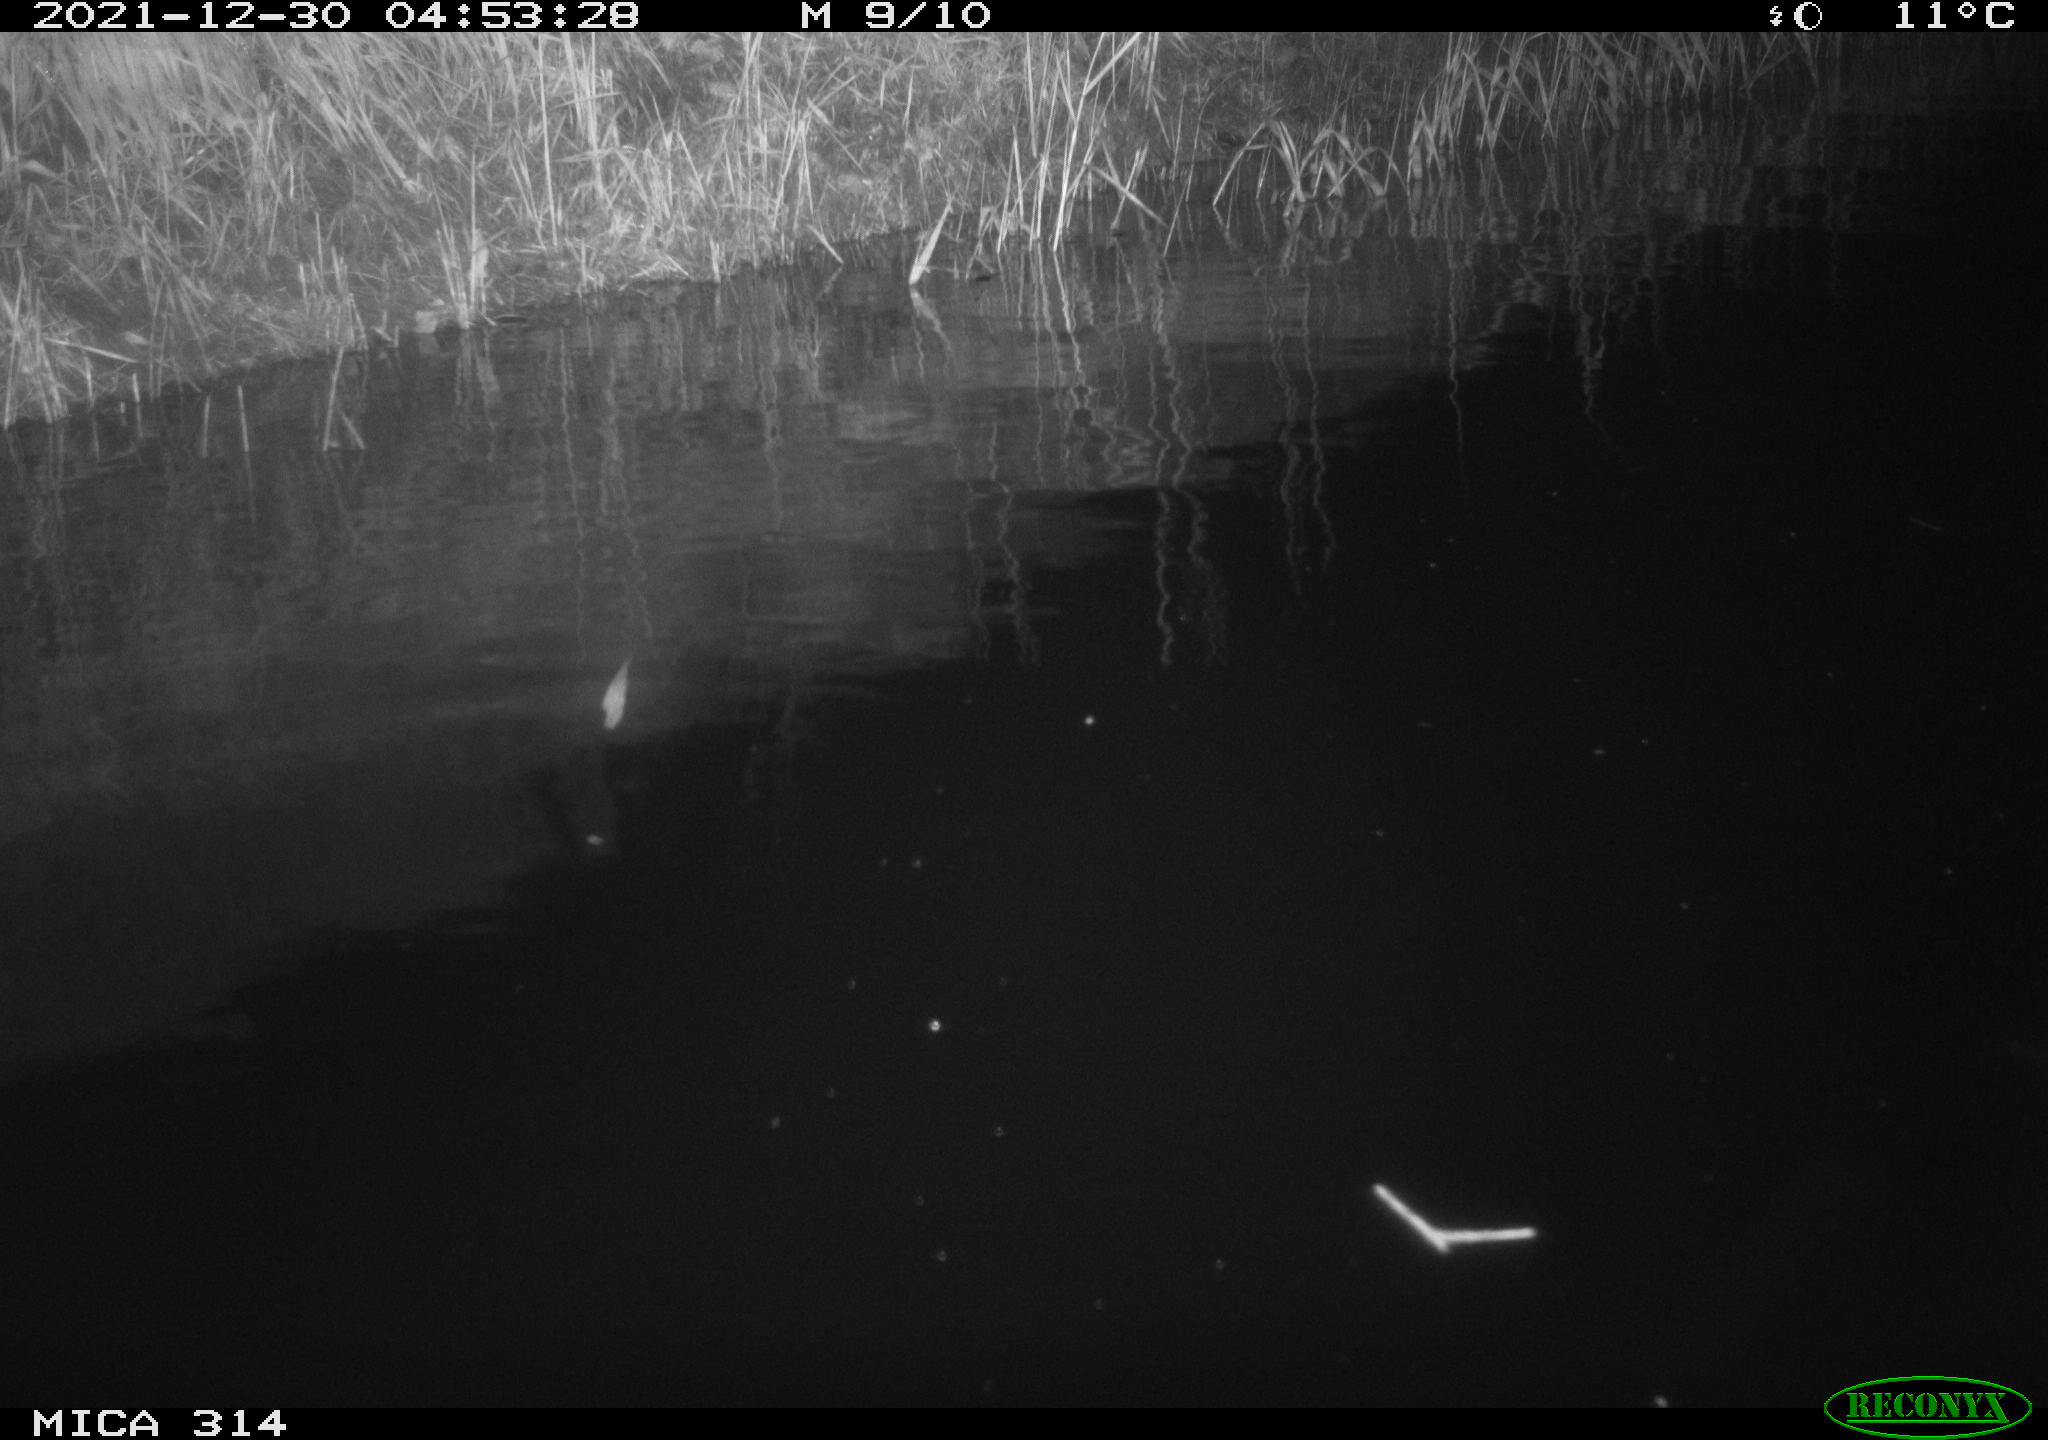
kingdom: Animalia
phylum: Chordata
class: Mammalia
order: Rodentia
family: Cricetidae
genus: Ondatra
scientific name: Ondatra zibethicus
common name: Muskrat
